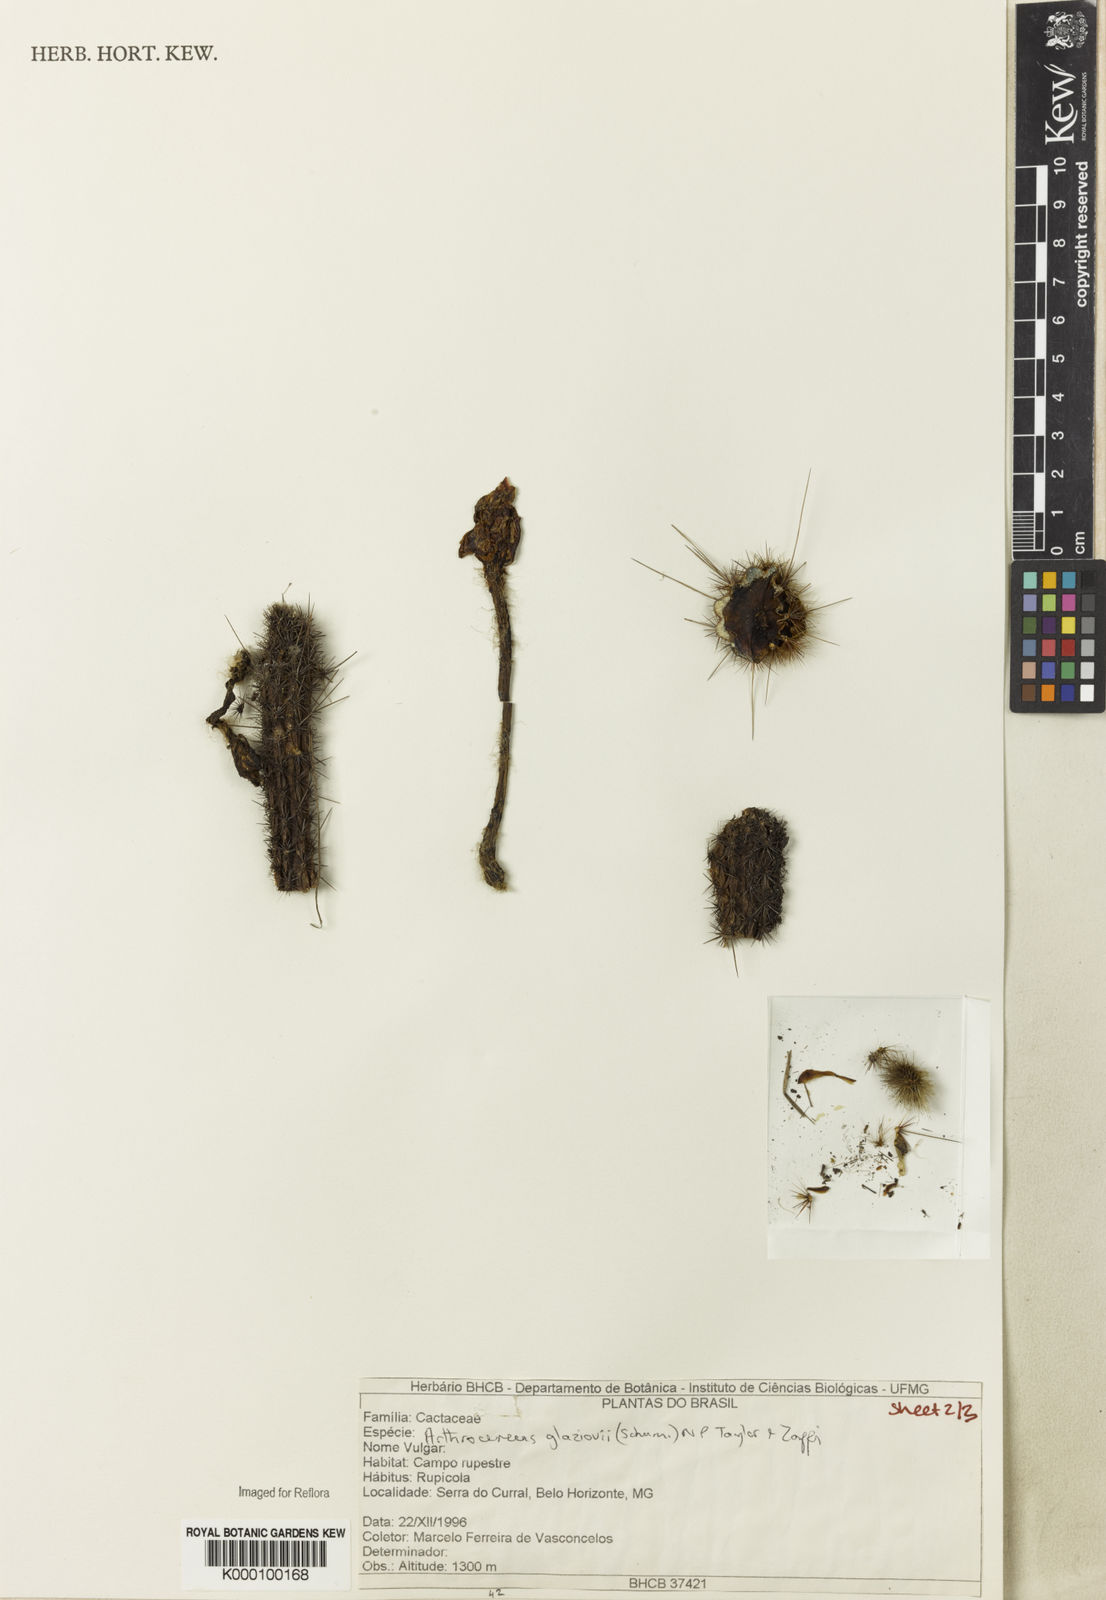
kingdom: Plantae
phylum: Tracheophyta
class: Magnoliopsida
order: Caryophyllales
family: Cactaceae
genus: Arthrocereus
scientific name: Arthrocereus glaziovii
